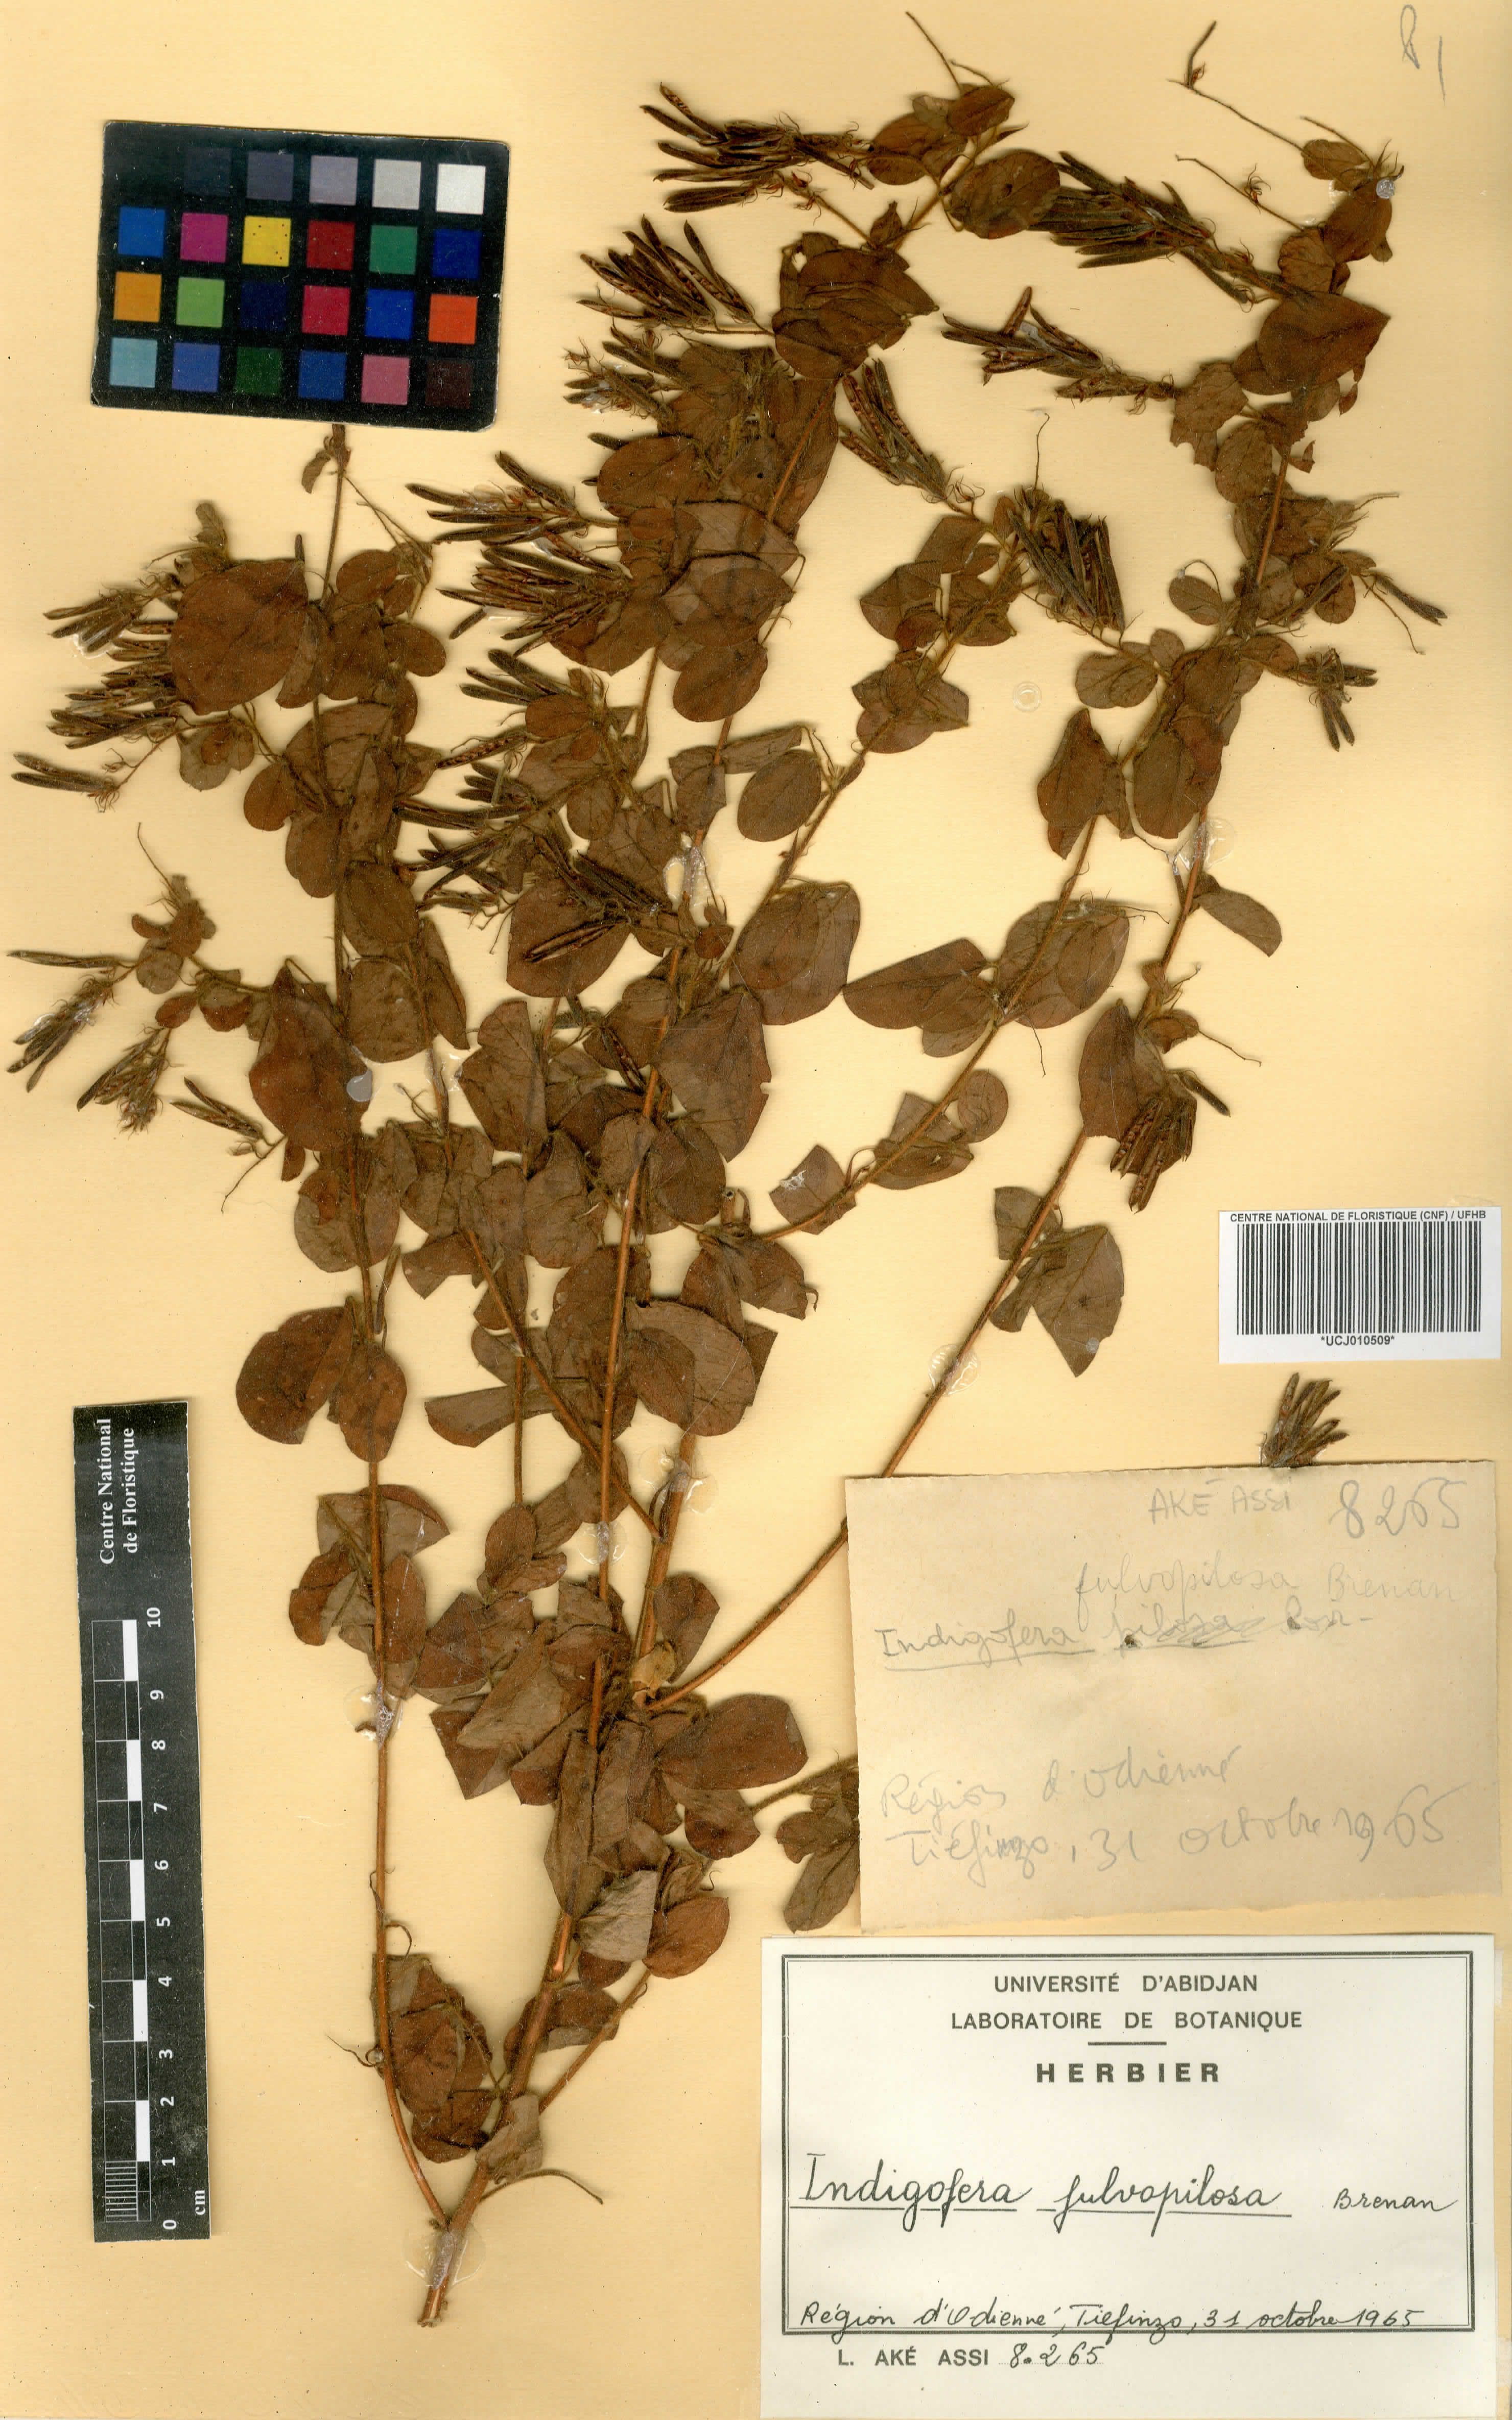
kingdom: Plantae
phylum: Tracheophyta
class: Magnoliopsida
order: Fabales
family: Fabaceae
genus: Indigofera
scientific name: Indigofera fulvopilosa
